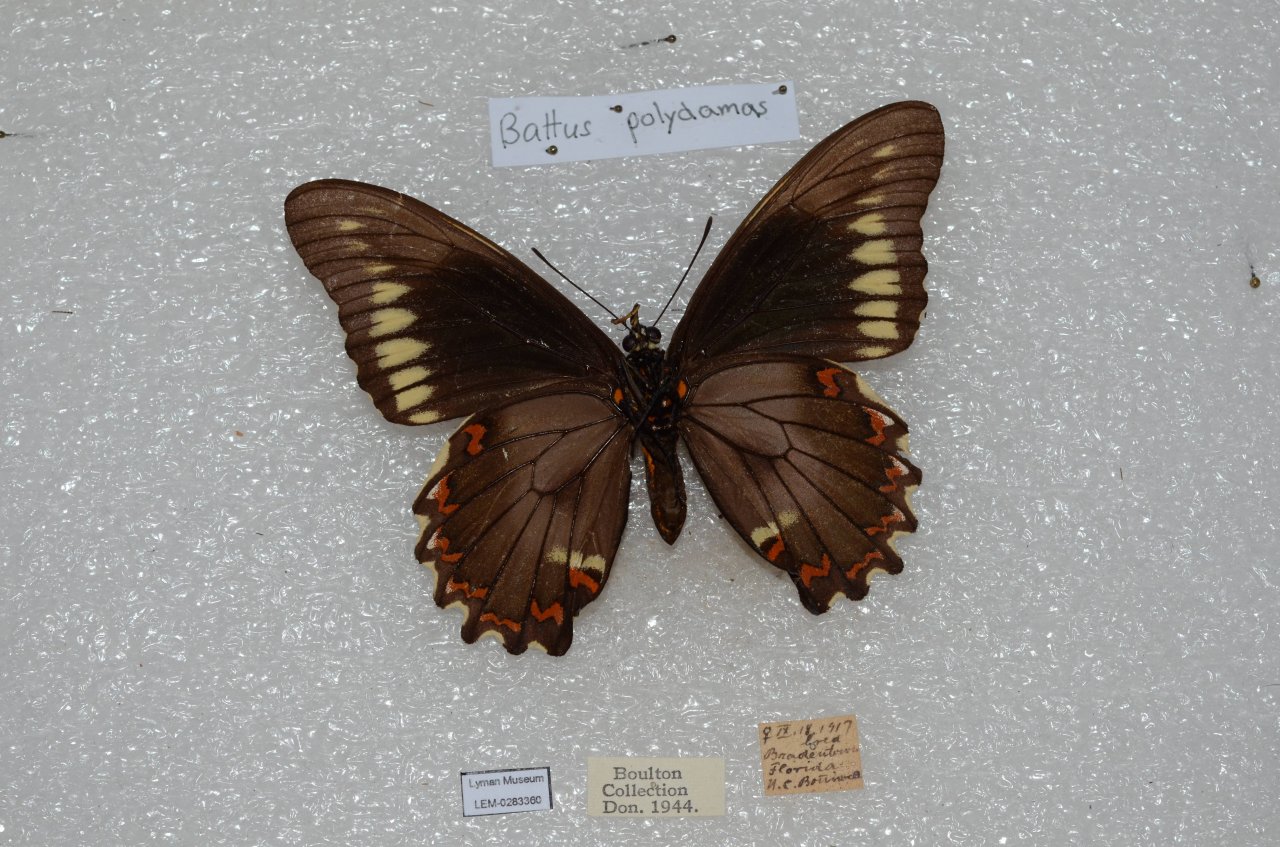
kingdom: Animalia
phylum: Arthropoda
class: Insecta
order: Lepidoptera
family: Papilionidae
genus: Battus
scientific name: Battus polydamas
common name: Polydamas Swallowtail
